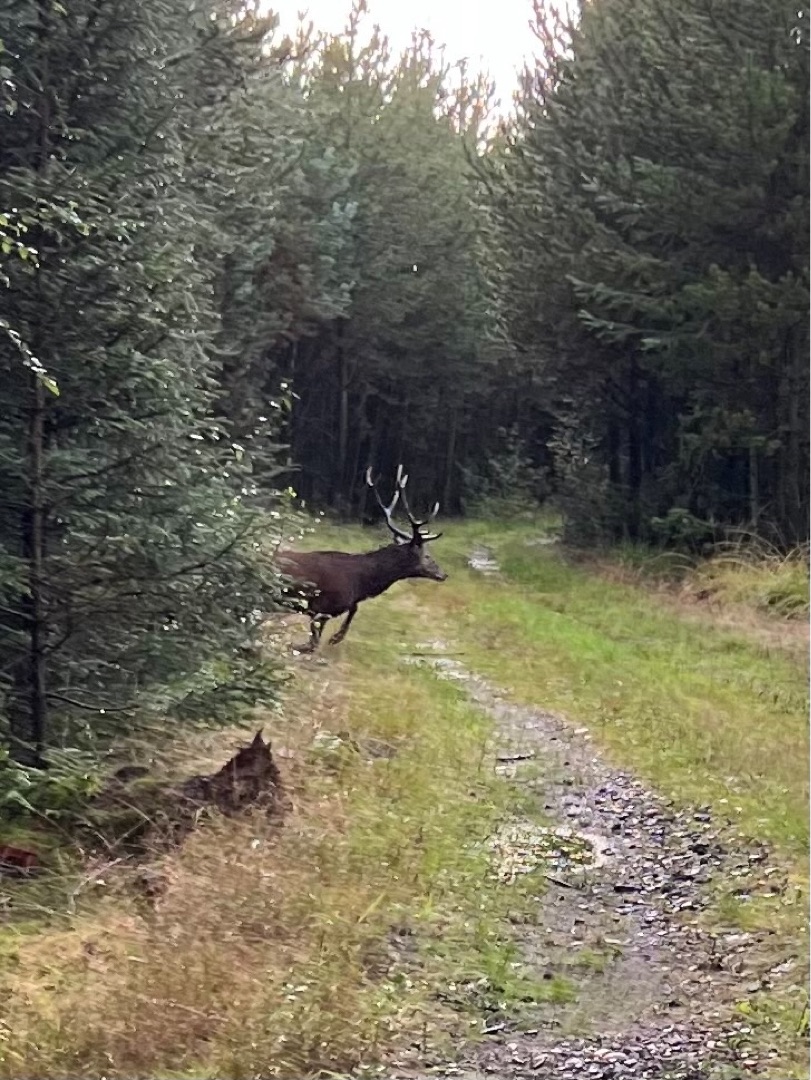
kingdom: Animalia
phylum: Chordata
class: Mammalia
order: Artiodactyla
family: Cervidae
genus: Cervus
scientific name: Cervus elaphus
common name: Krondyr
